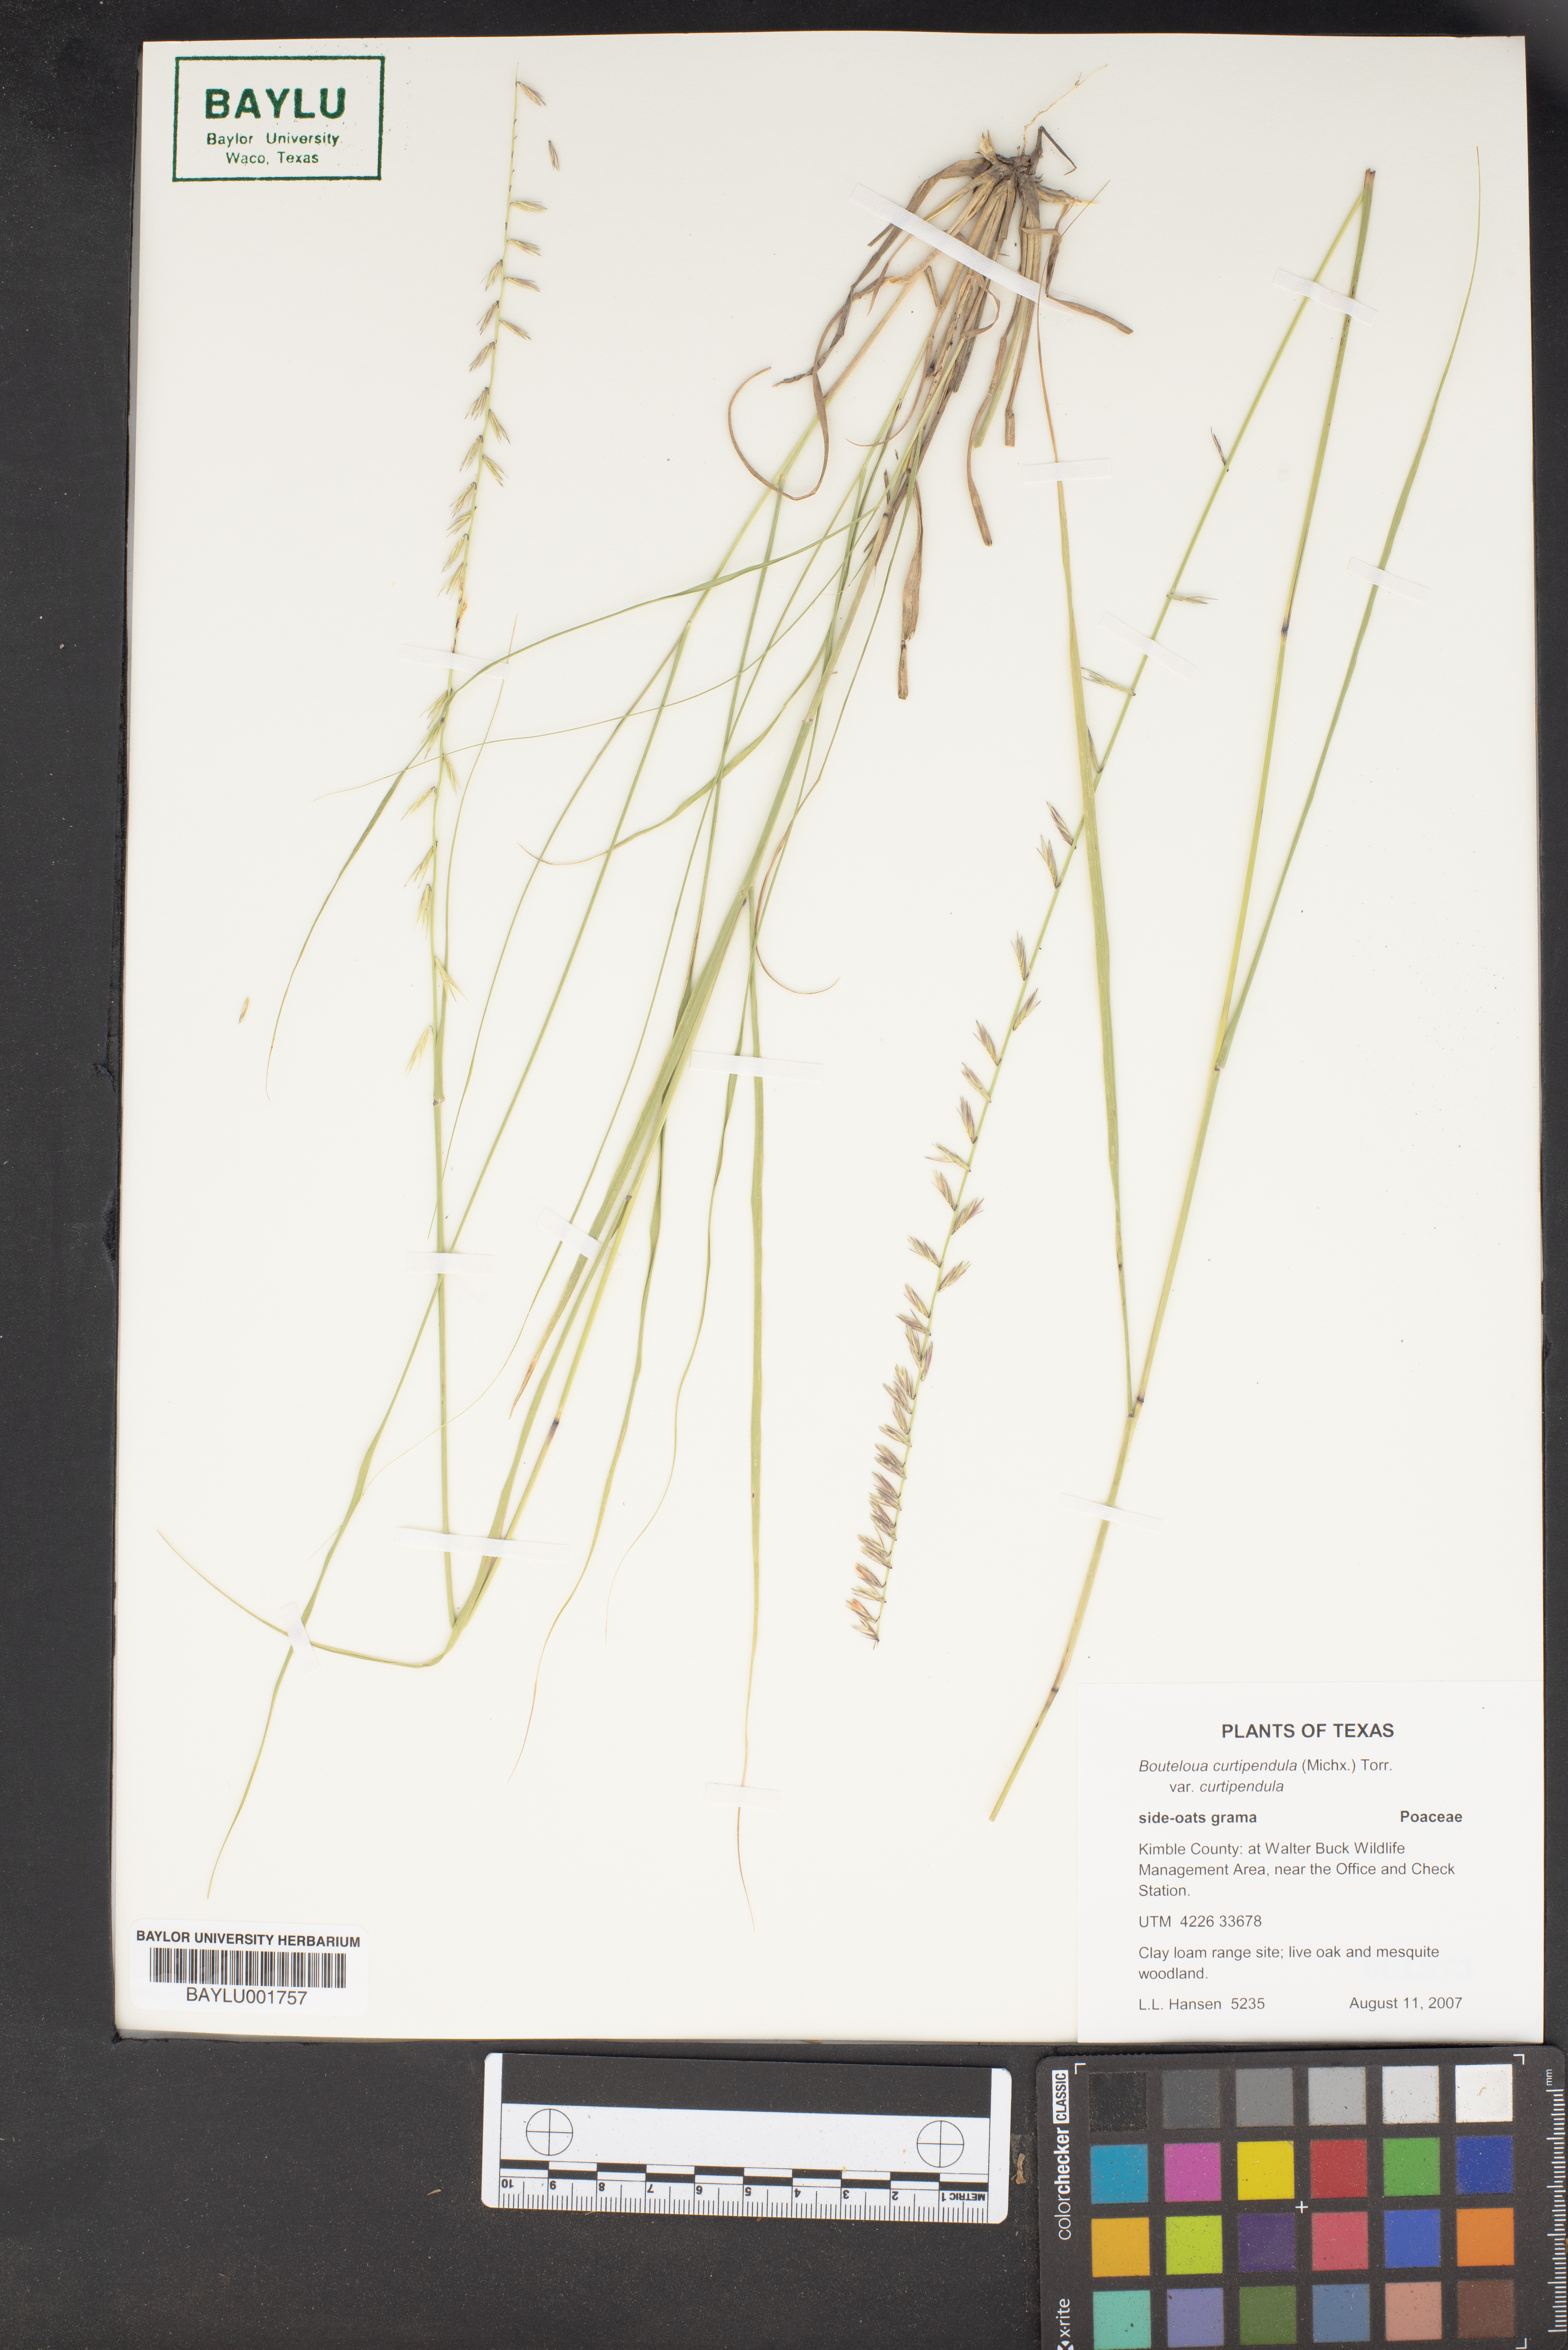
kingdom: Plantae
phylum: Tracheophyta
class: Liliopsida
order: Poales
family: Poaceae
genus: Bouteloua
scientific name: Bouteloua curtipendula
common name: Side-oats grama
